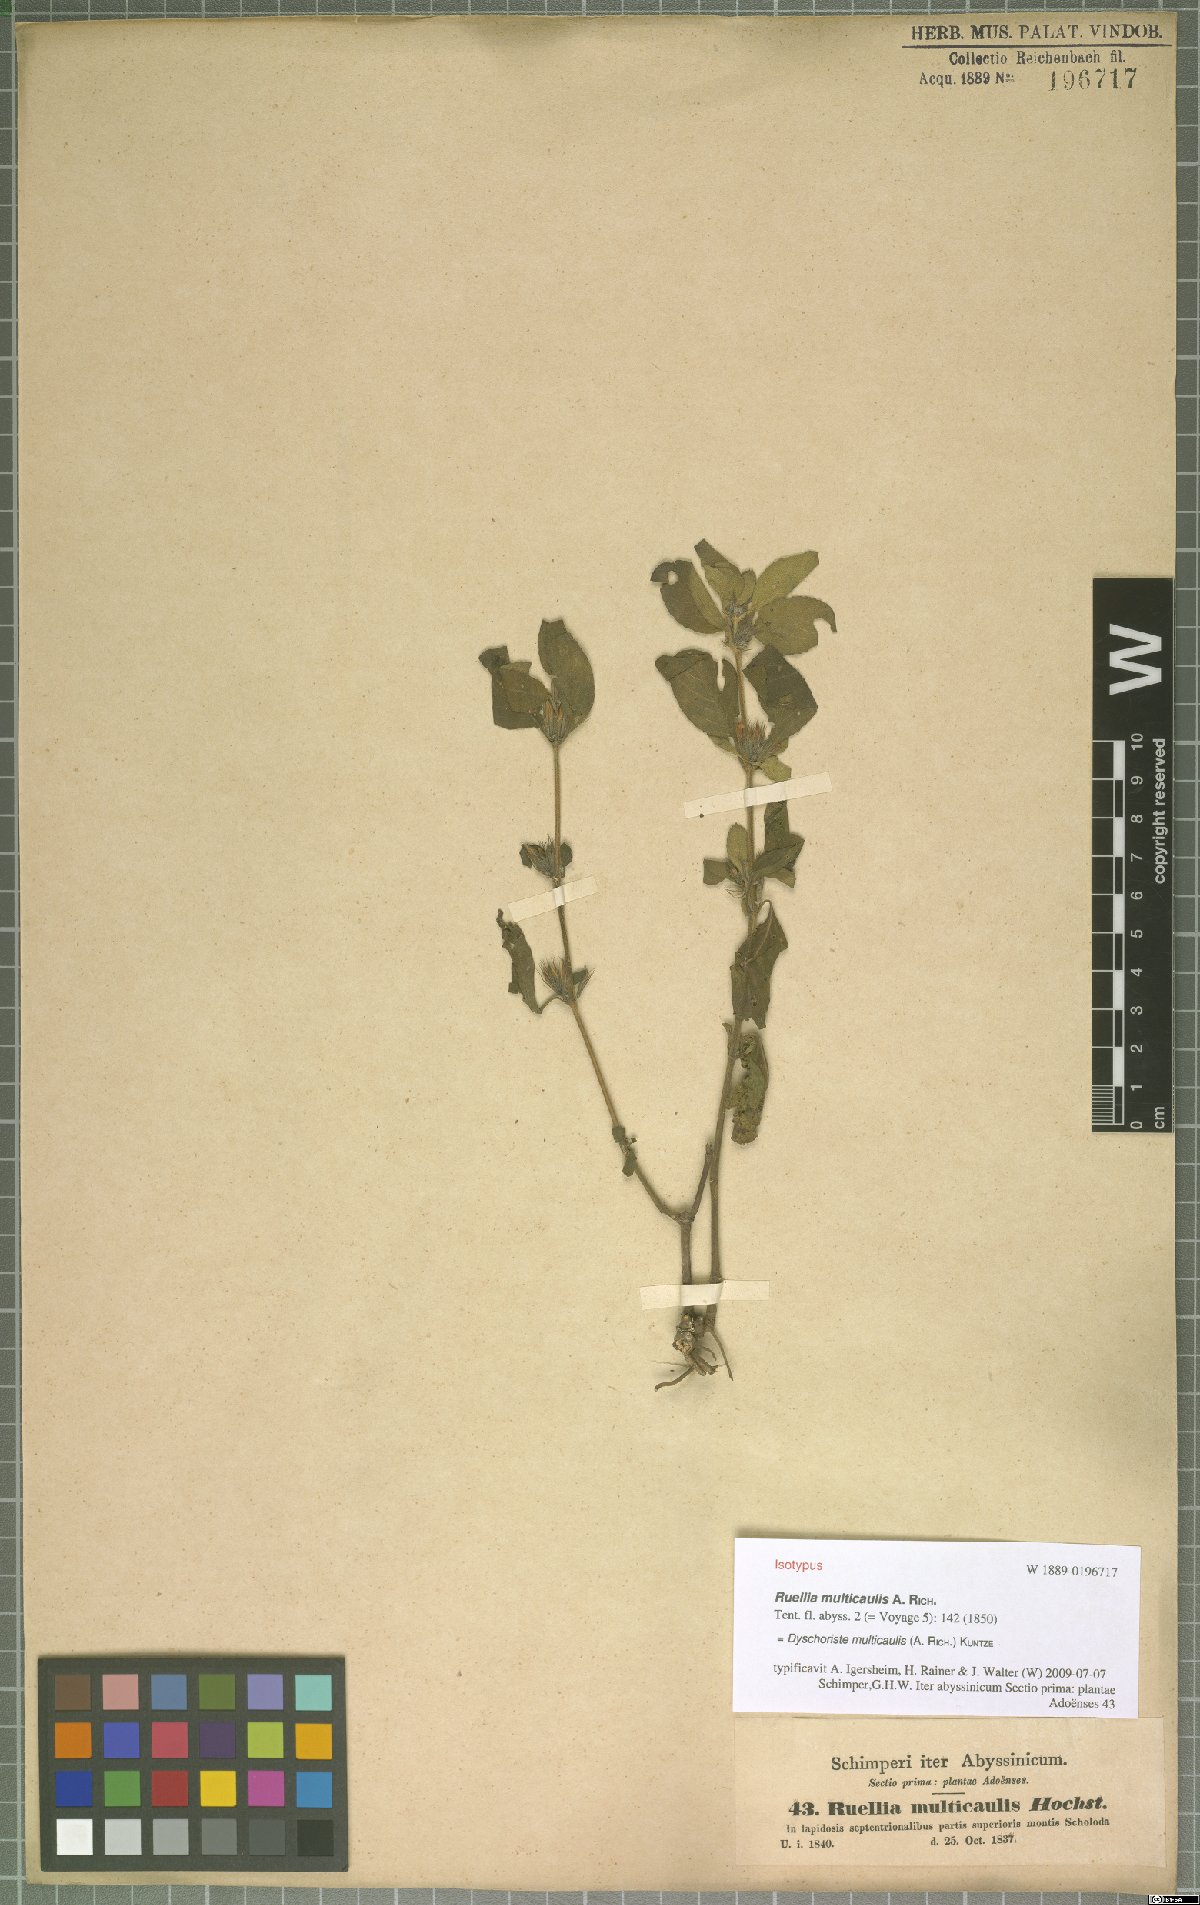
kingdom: Plantae
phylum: Tracheophyta
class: Magnoliopsida
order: Lamiales
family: Acanthaceae
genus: Dyschoriste
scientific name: Dyschoriste multicaulis
